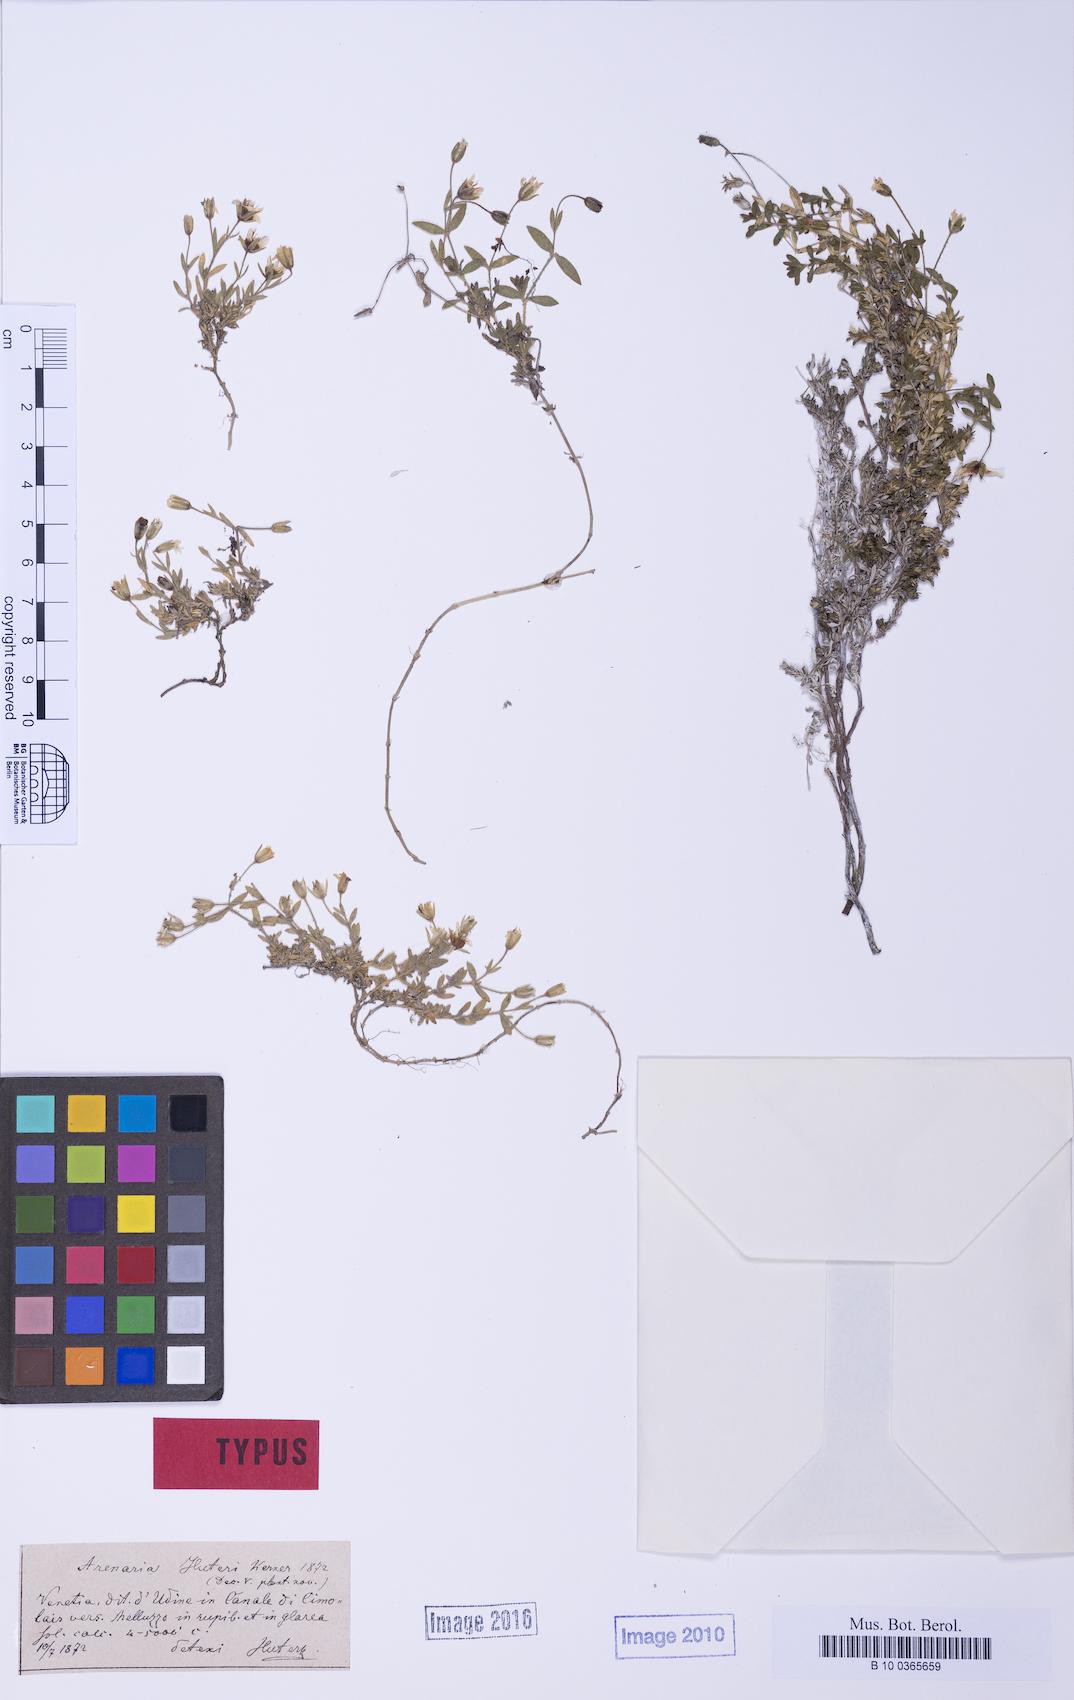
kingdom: Plantae
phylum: Tracheophyta
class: Magnoliopsida
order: Caryophyllales
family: Caryophyllaceae
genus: Arenaria
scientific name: Arenaria huteri
